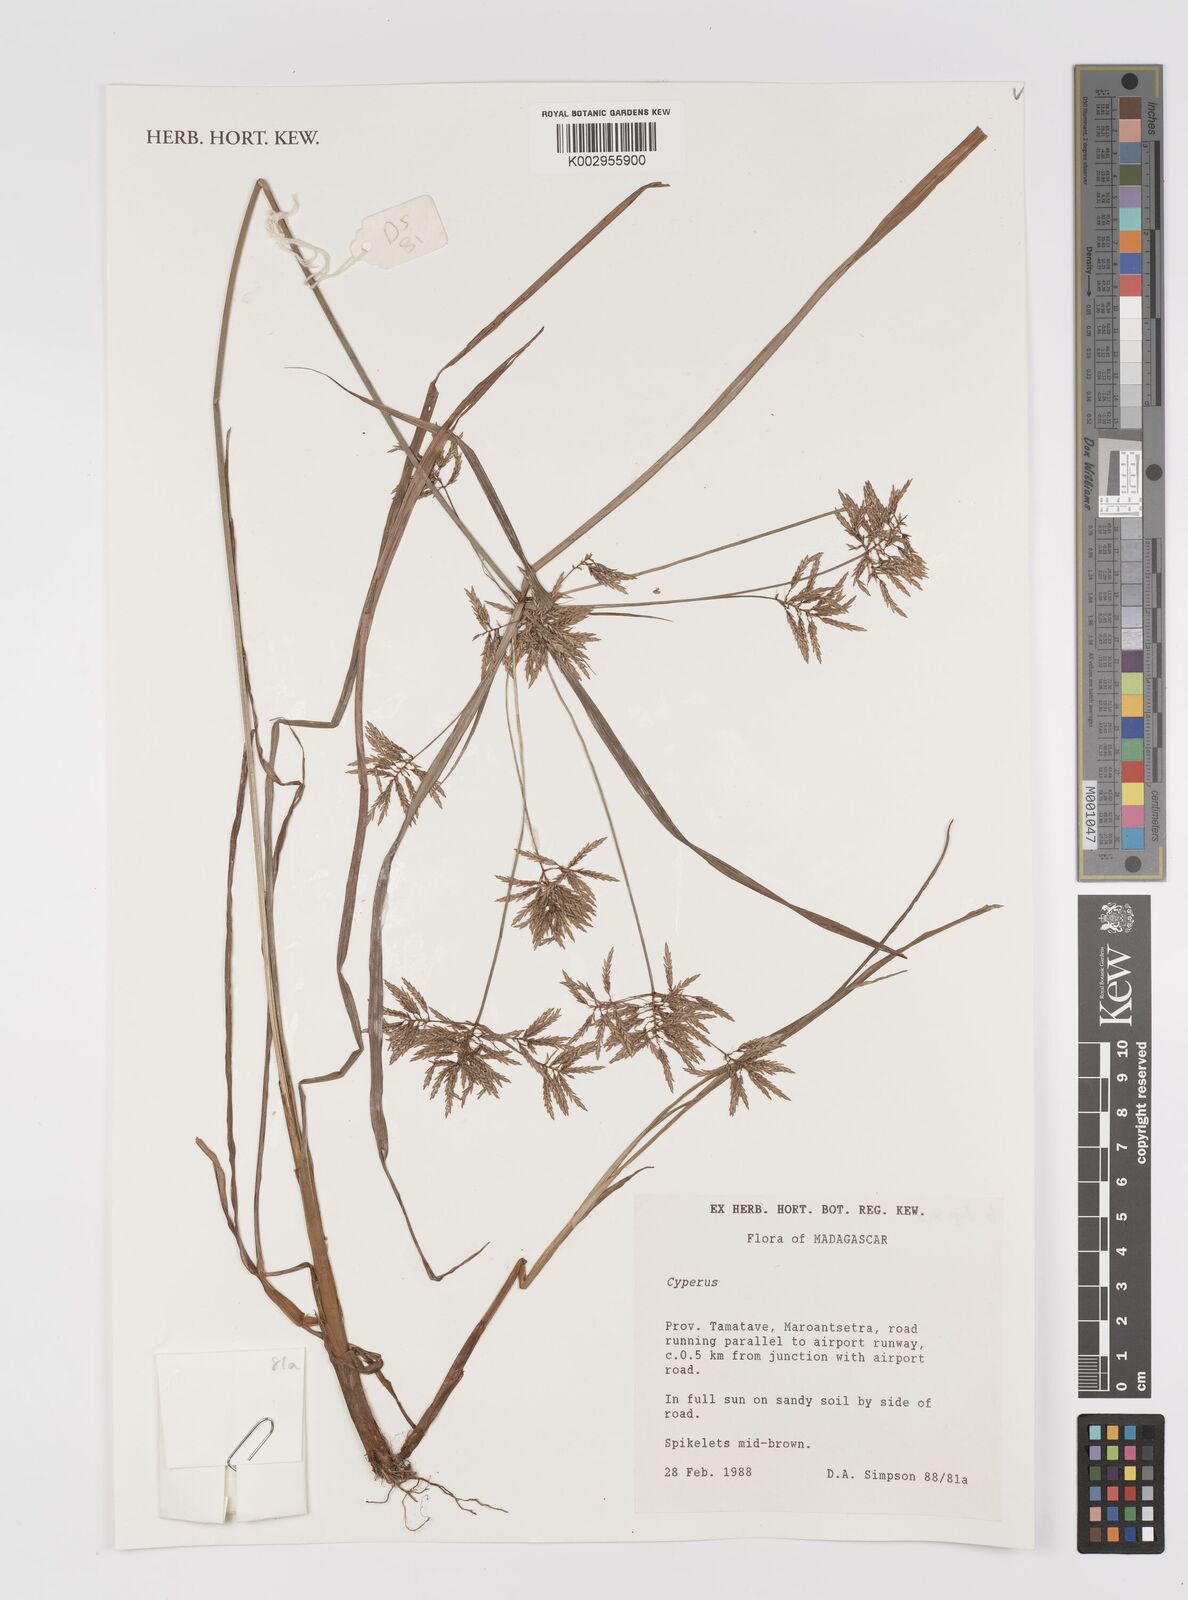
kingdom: Plantae
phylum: Tracheophyta
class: Liliopsida
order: Poales
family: Cyperaceae
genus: Cyperus
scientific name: Cyperus
